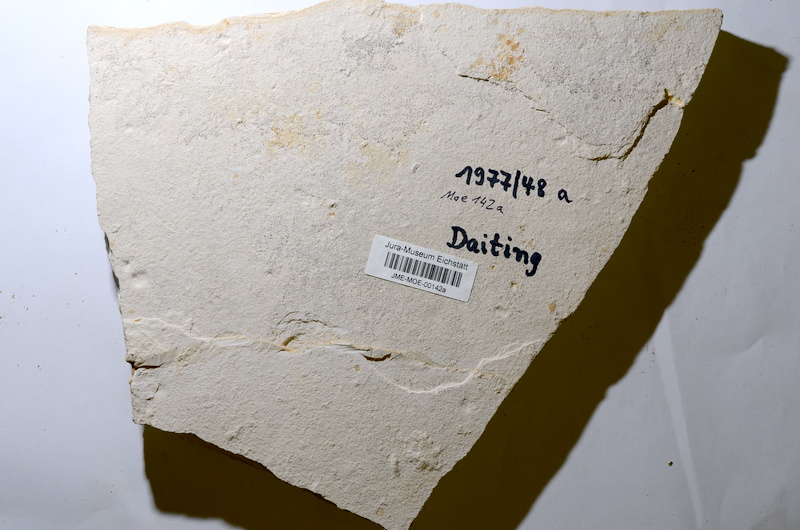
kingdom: Animalia
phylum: Chordata
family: Ankylophoridae
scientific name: Ankylophoridae
